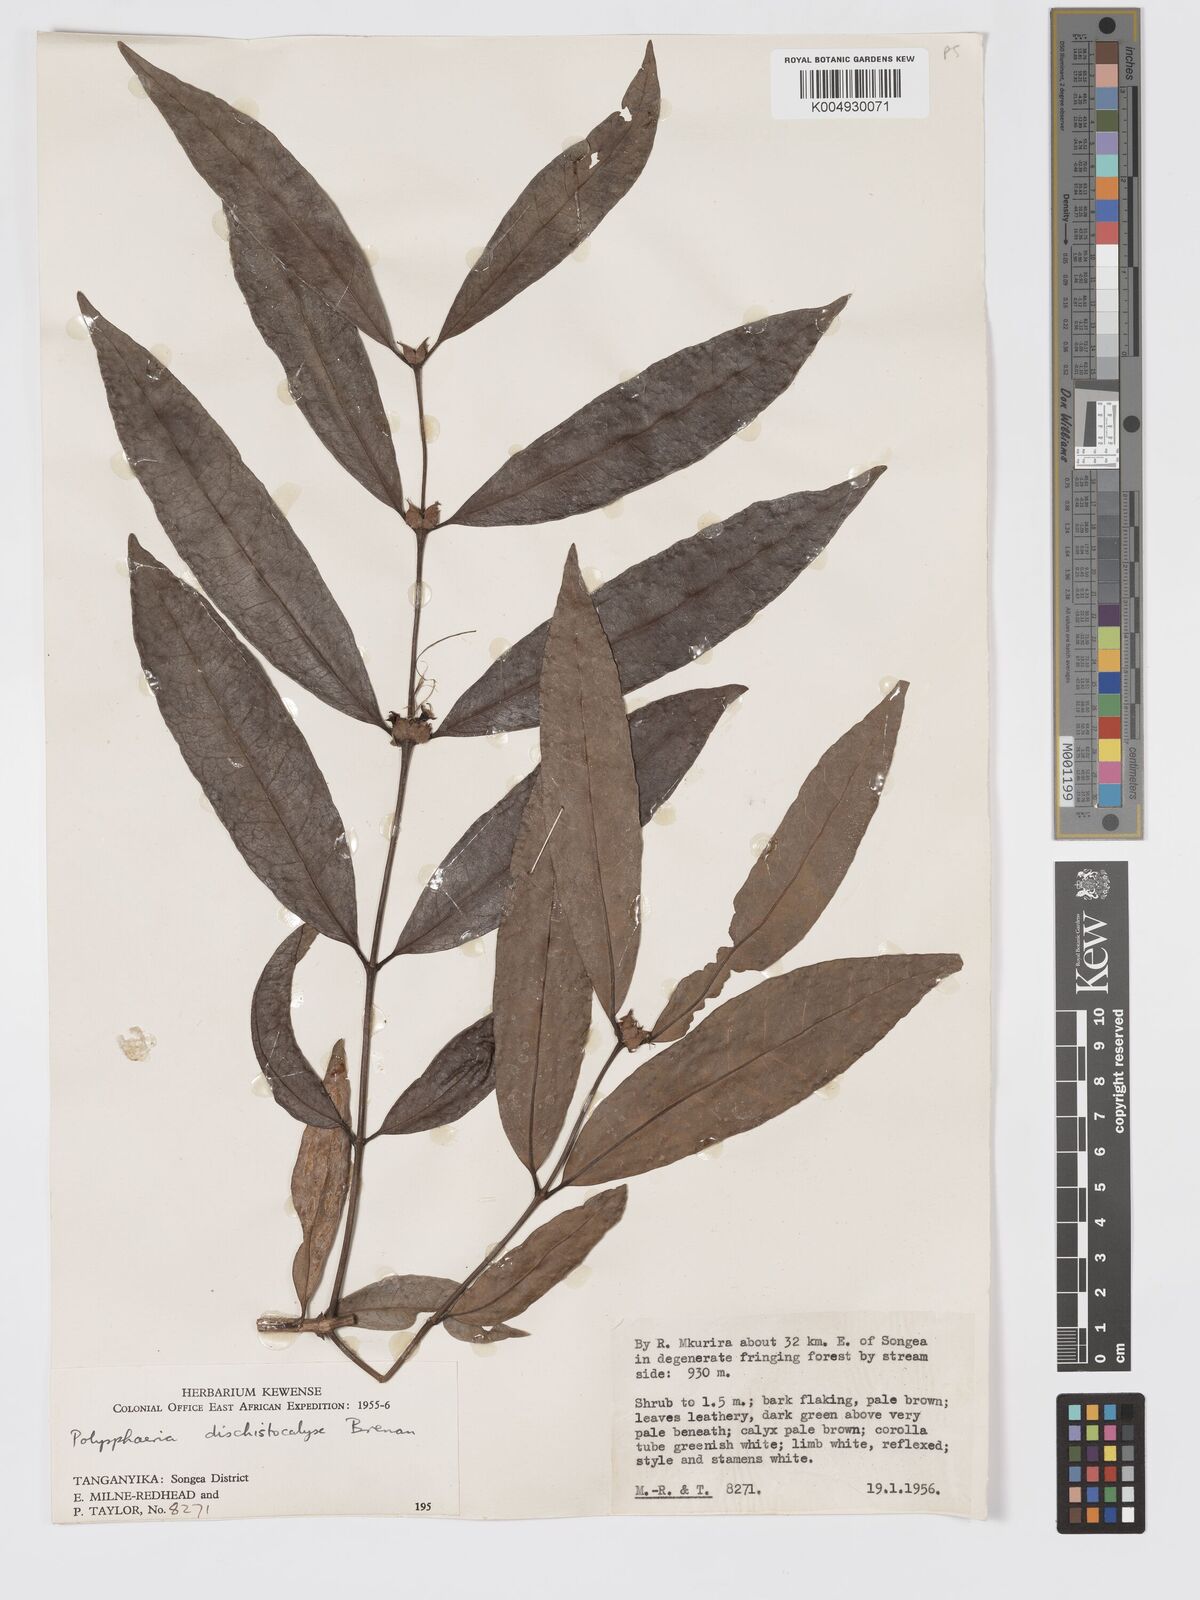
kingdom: Plantae
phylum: Tracheophyta
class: Magnoliopsida
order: Gentianales
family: Rubiaceae
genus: Polysphaeria
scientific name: Polysphaeria dischistocalyx
